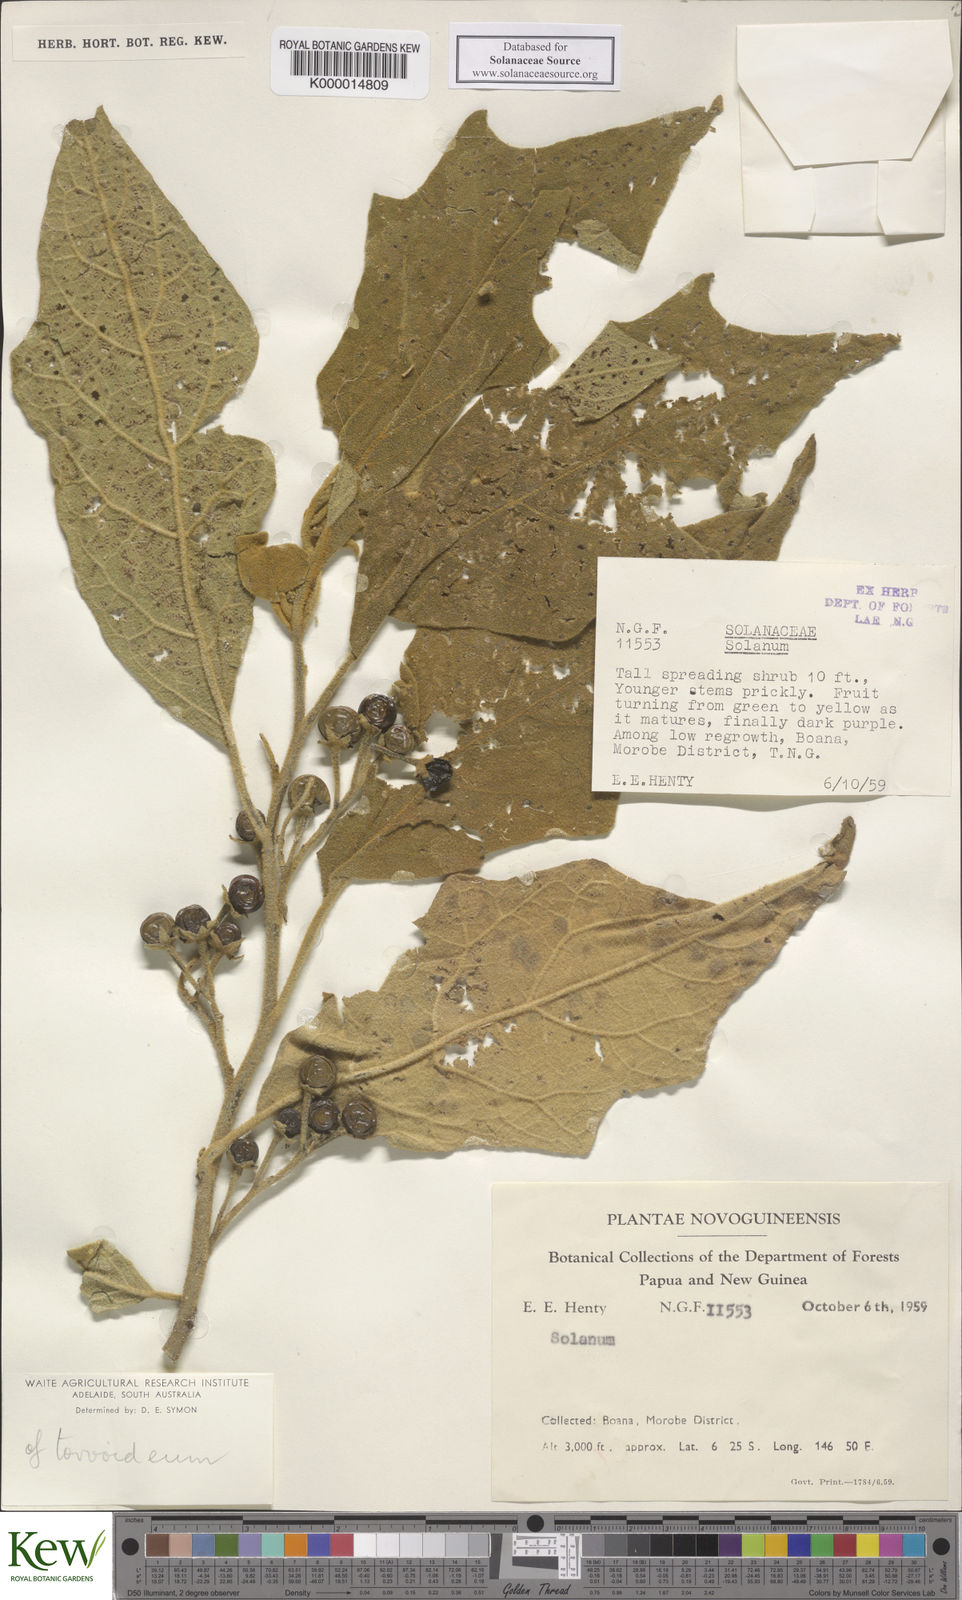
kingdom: Plantae
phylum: Tracheophyta
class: Magnoliopsida
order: Solanales
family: Solanaceae
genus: Solanum
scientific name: Solanum torvoideum
